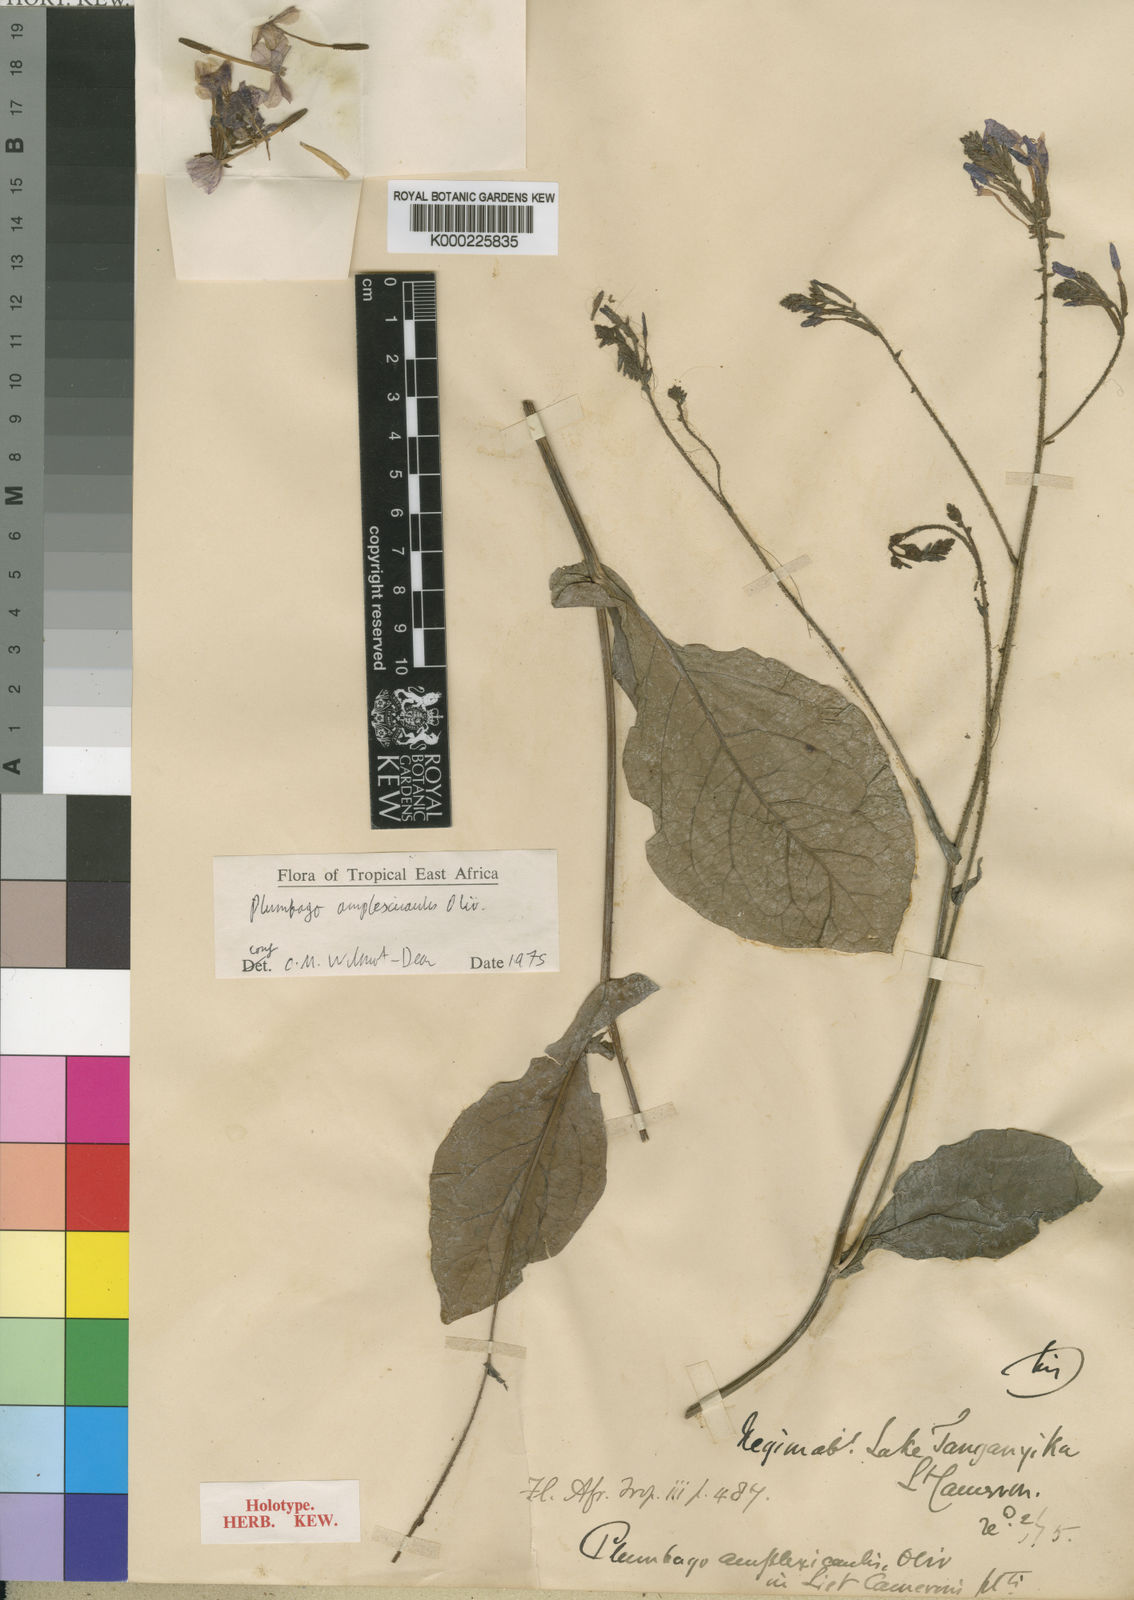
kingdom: Plantae
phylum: Tracheophyta
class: Magnoliopsida
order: Caryophyllales
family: Plumbaginaceae
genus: Plumbago
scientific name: Plumbago amplexicaulis
